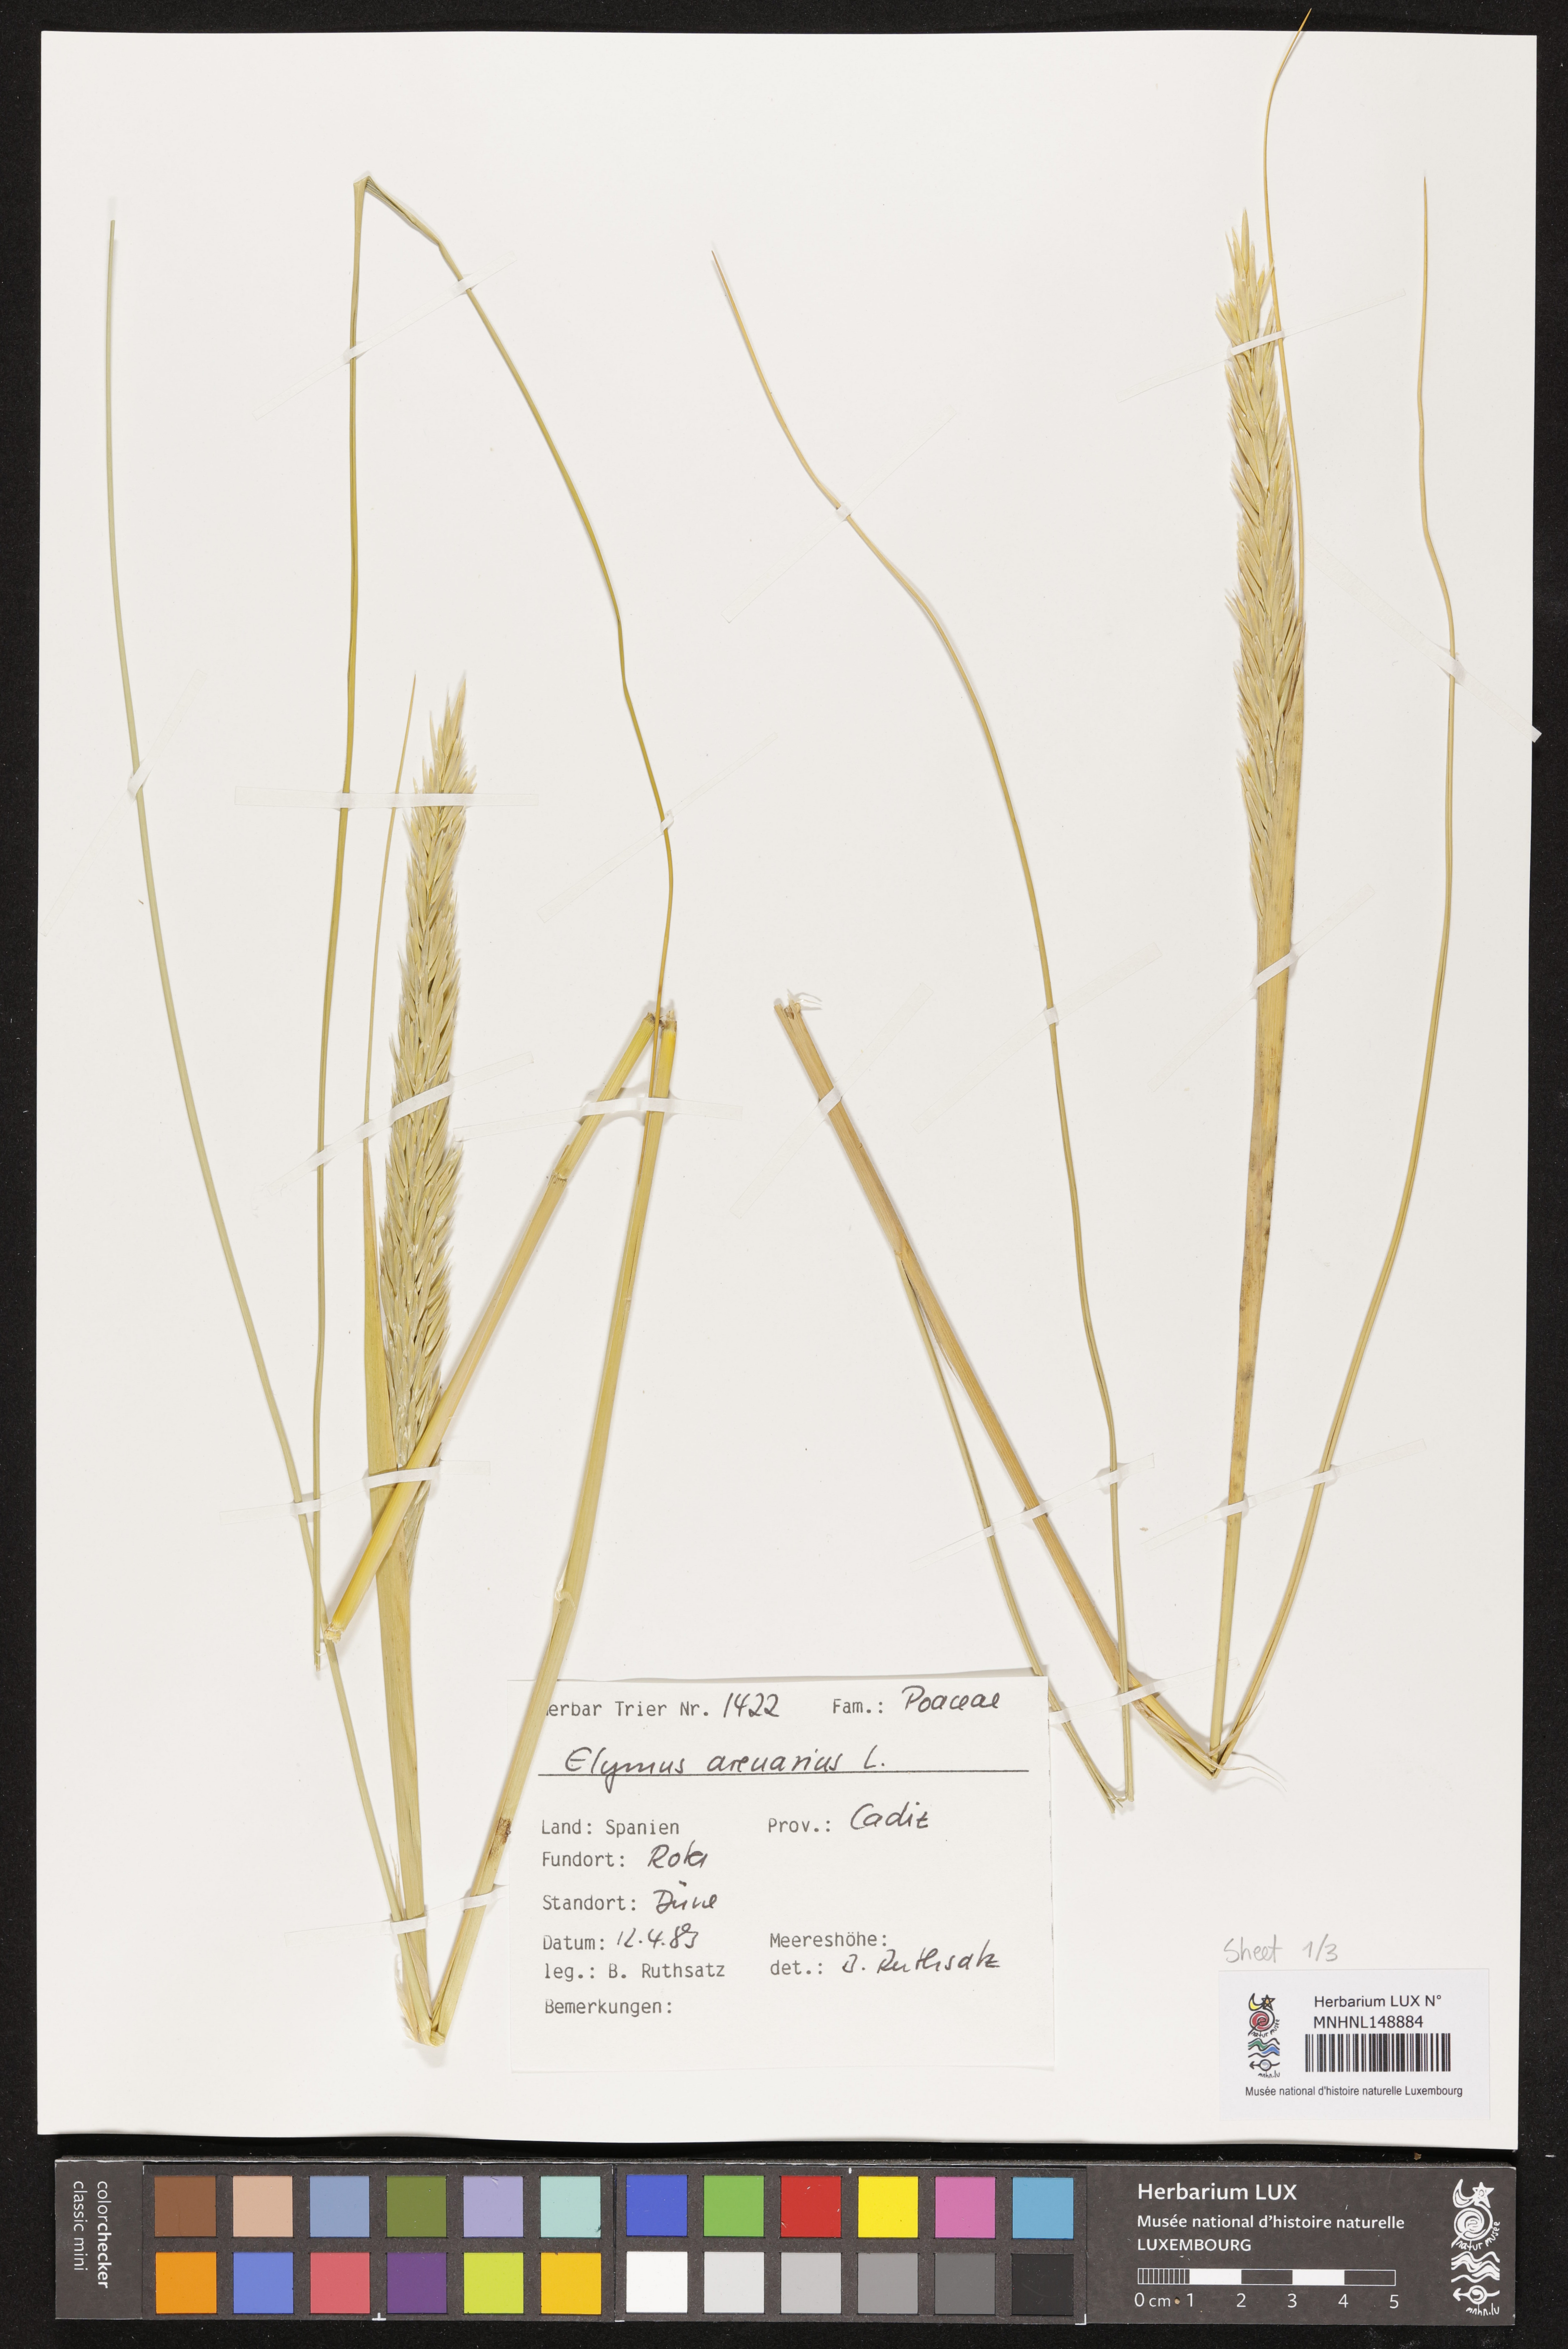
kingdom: Plantae
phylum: Tracheophyta
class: Liliopsida
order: Poales
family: Poaceae
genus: Leymus
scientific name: Leymus arenarius
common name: Lyme-grass
